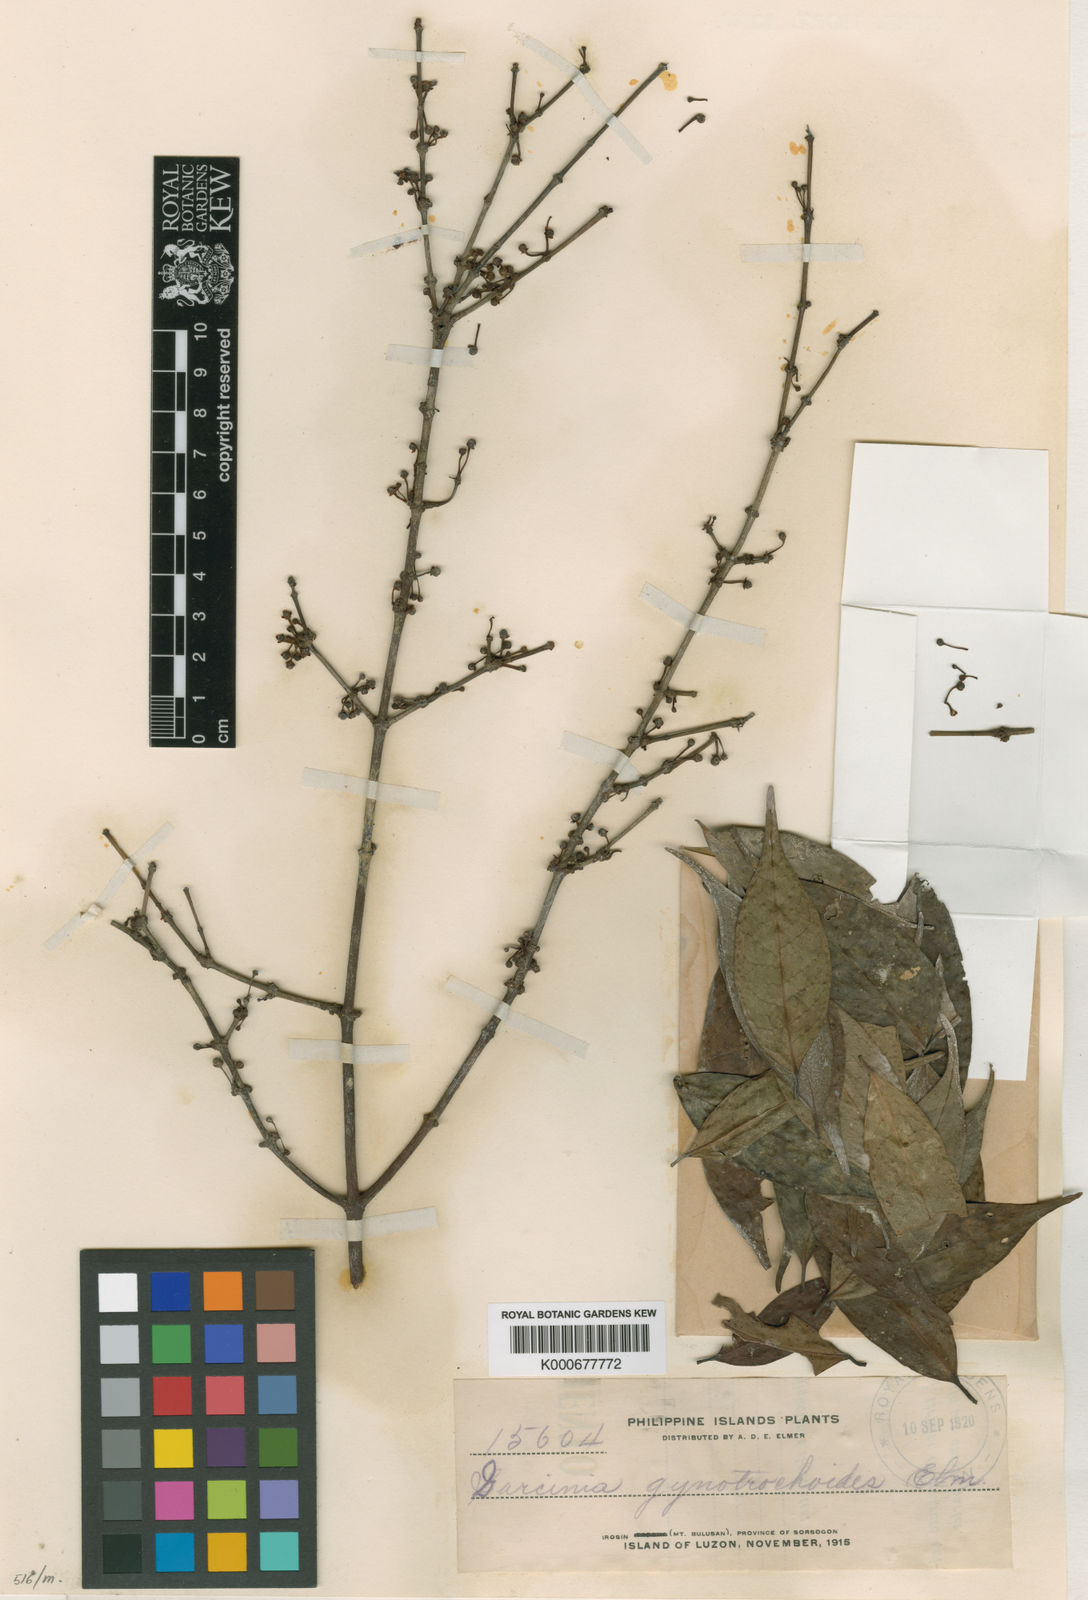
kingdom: Plantae
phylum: Tracheophyta
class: Magnoliopsida
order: Malpighiales
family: Clusiaceae
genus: Garcinia
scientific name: Garcinia macgregorii
